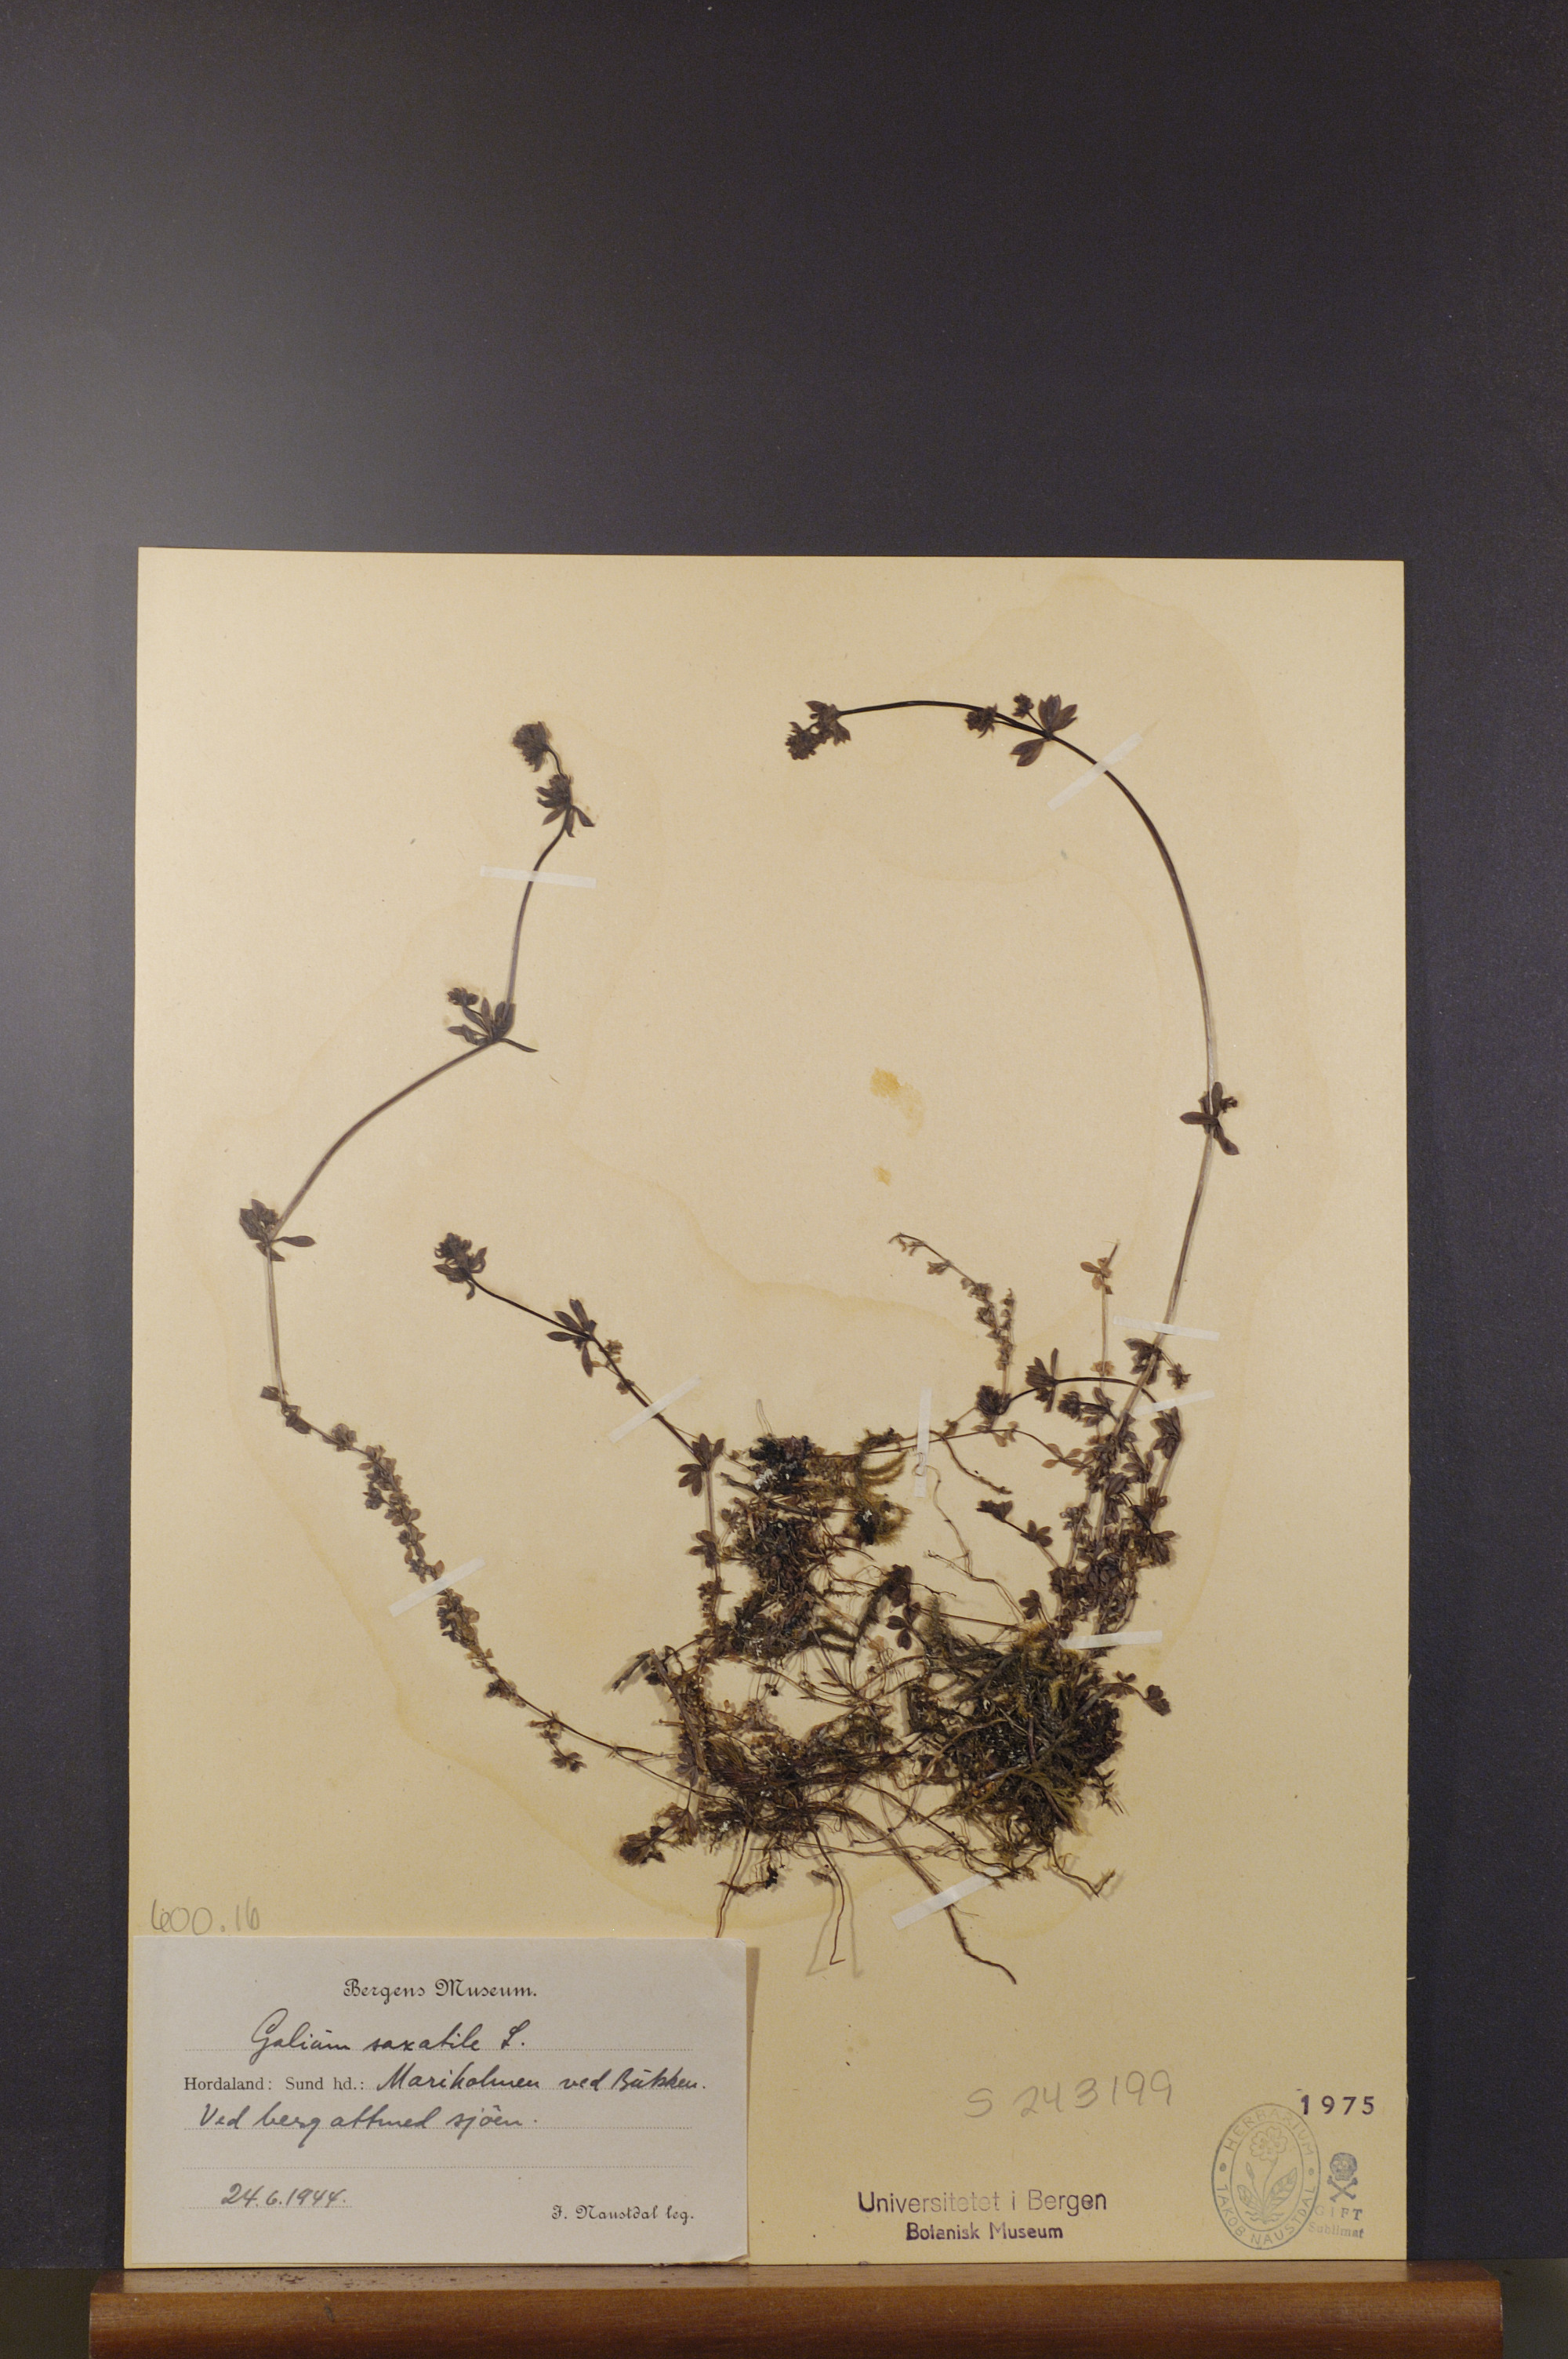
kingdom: Plantae
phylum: Tracheophyta
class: Magnoliopsida
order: Gentianales
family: Rubiaceae
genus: Galium
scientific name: Galium saxatile
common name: Heath bedstraw
